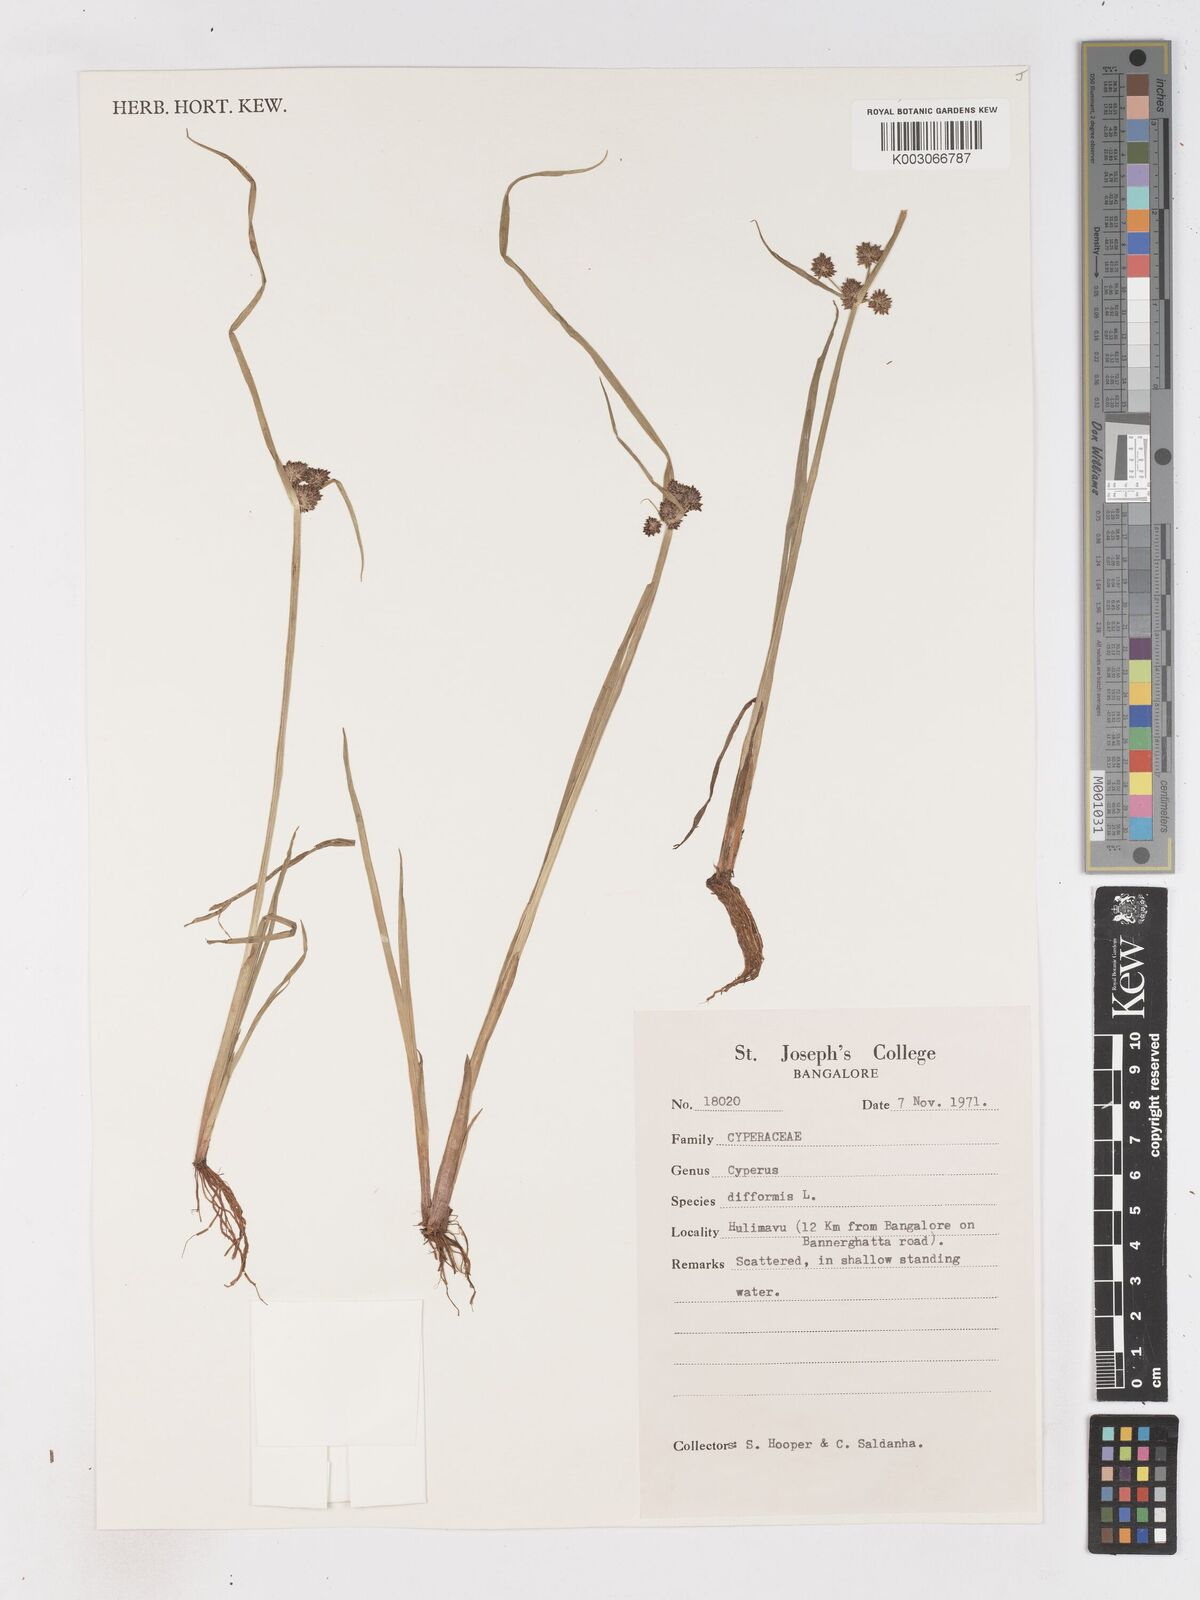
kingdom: Plantae
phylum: Tracheophyta
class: Liliopsida
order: Poales
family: Cyperaceae
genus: Cyperus
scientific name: Cyperus difformis
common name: Variable flatsedge
